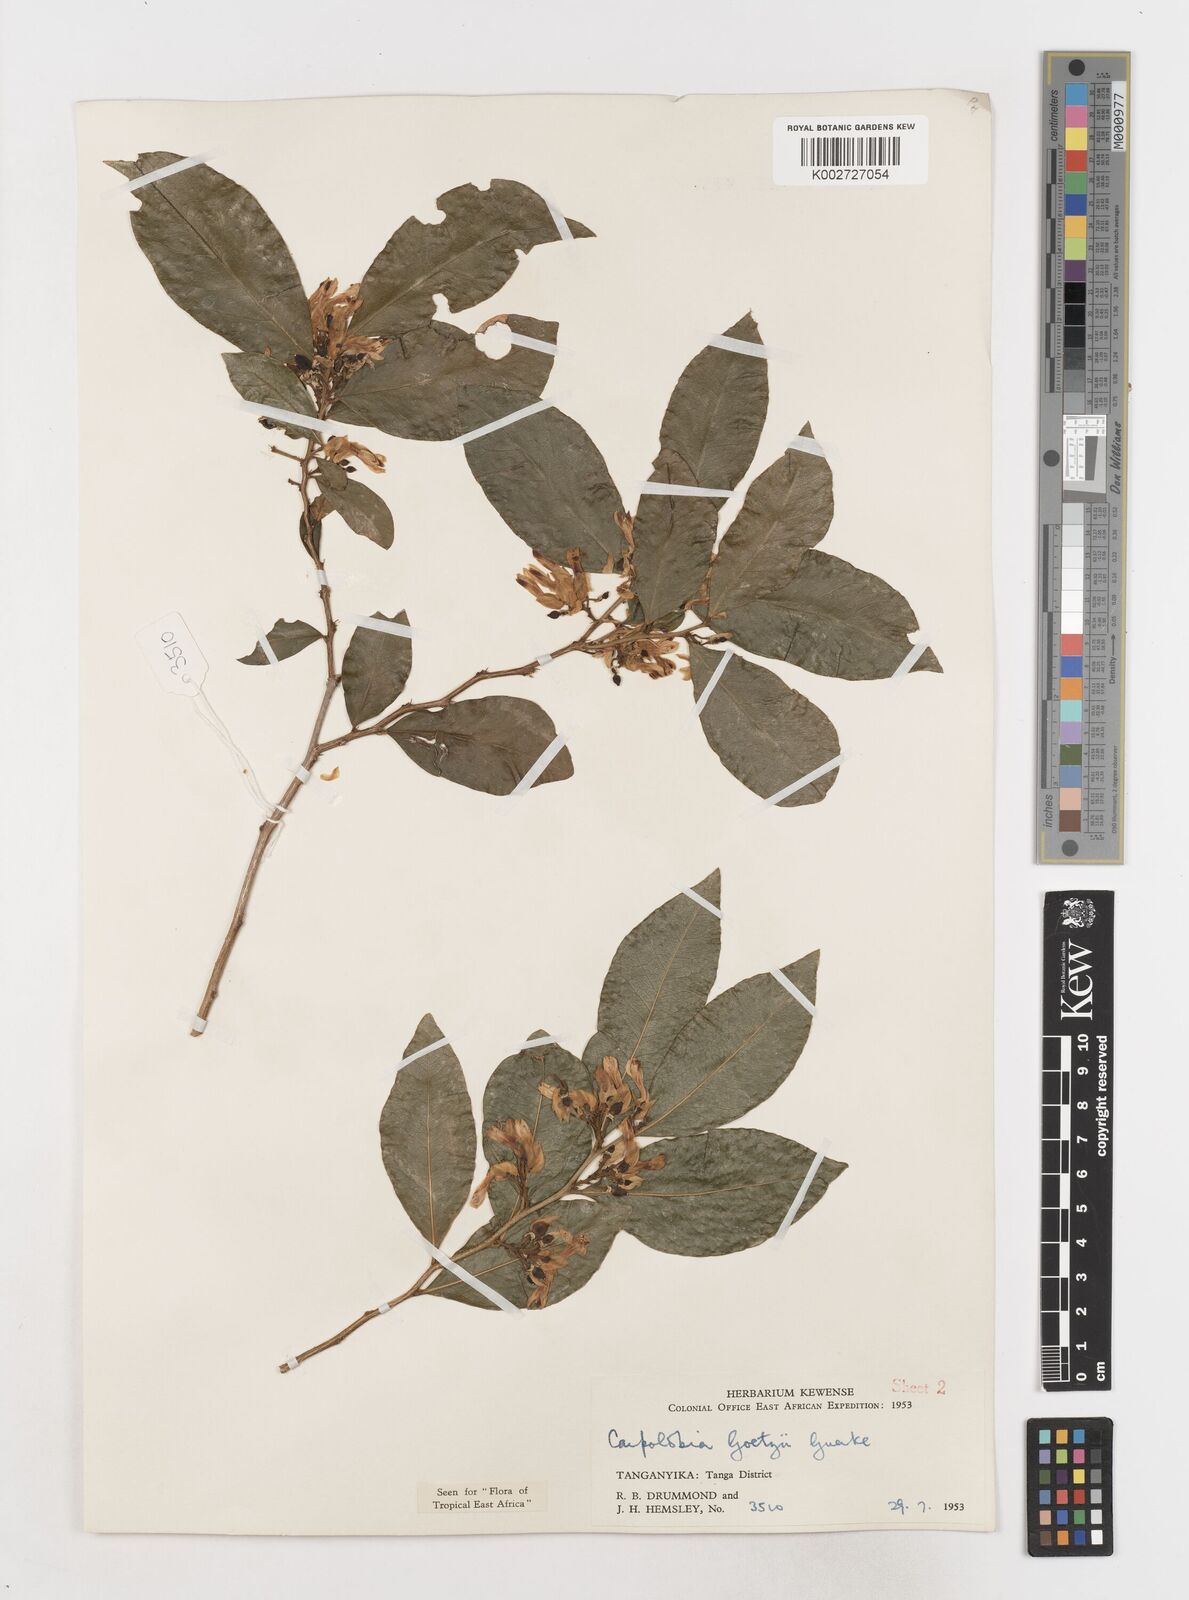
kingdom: Plantae
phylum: Tracheophyta
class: Magnoliopsida
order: Fabales
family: Polygalaceae
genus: Carpolobia
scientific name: Carpolobia goetzei
